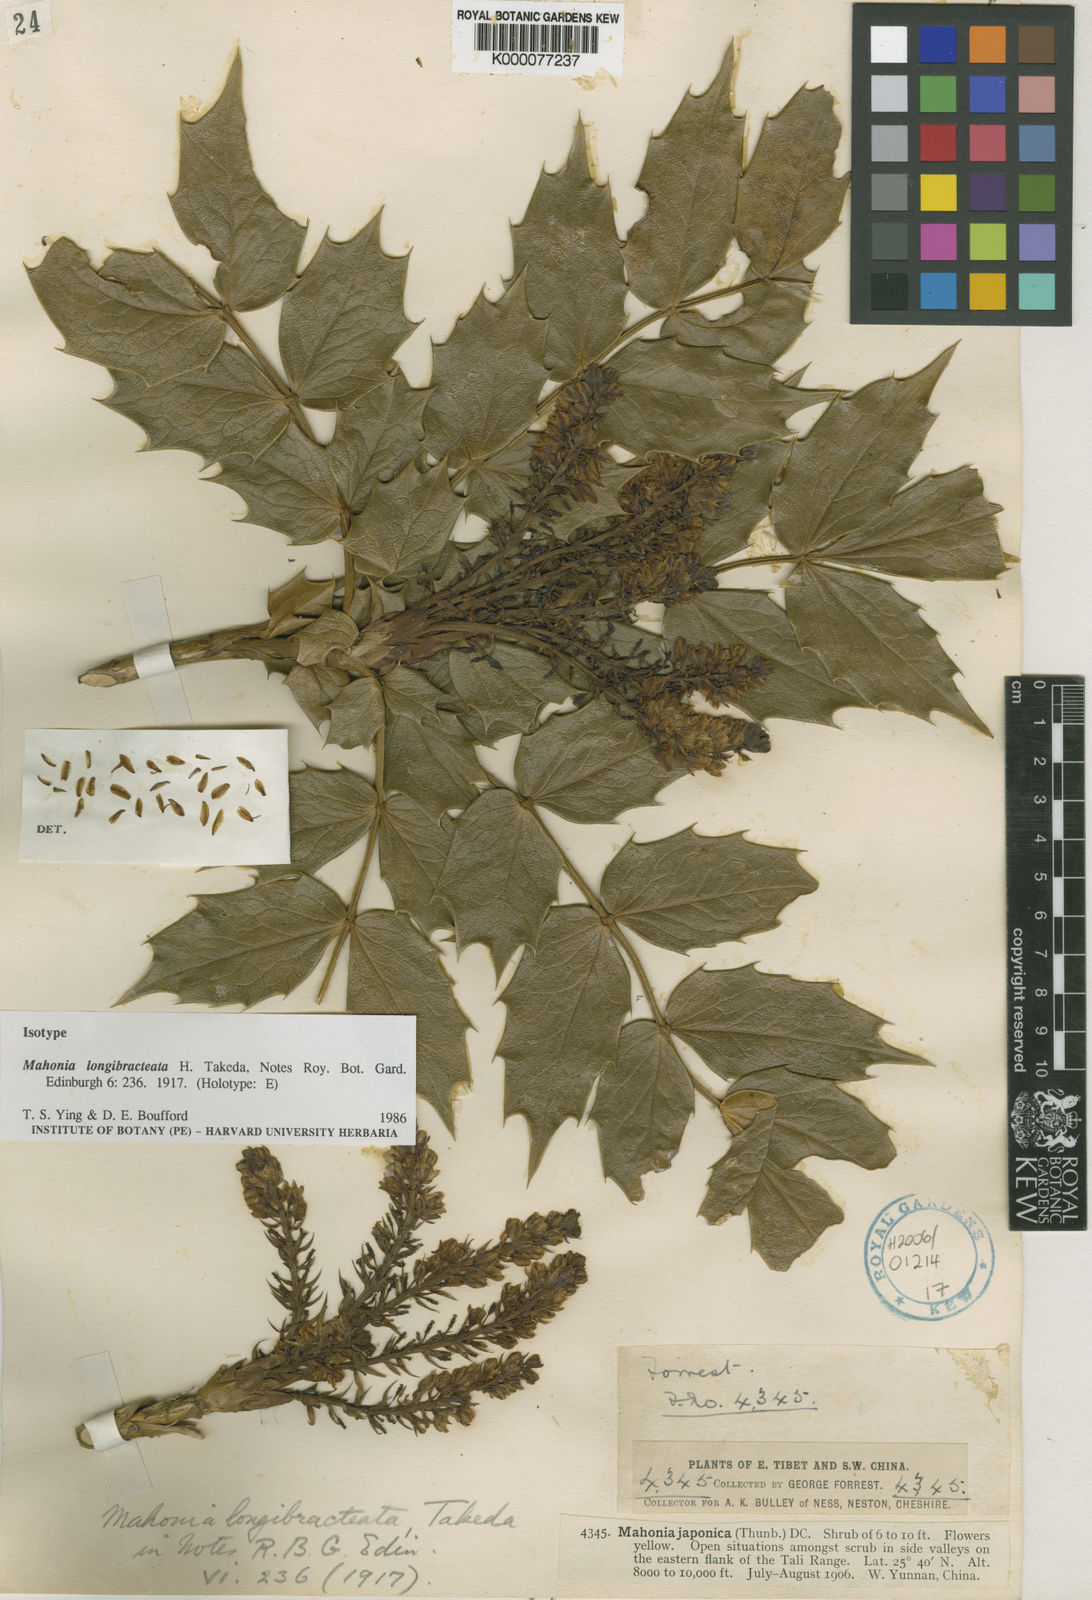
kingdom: Plantae
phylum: Tracheophyta
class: Magnoliopsida
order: Ranunculales
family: Berberidaceae
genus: Mahonia
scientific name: Mahonia longibracteata
